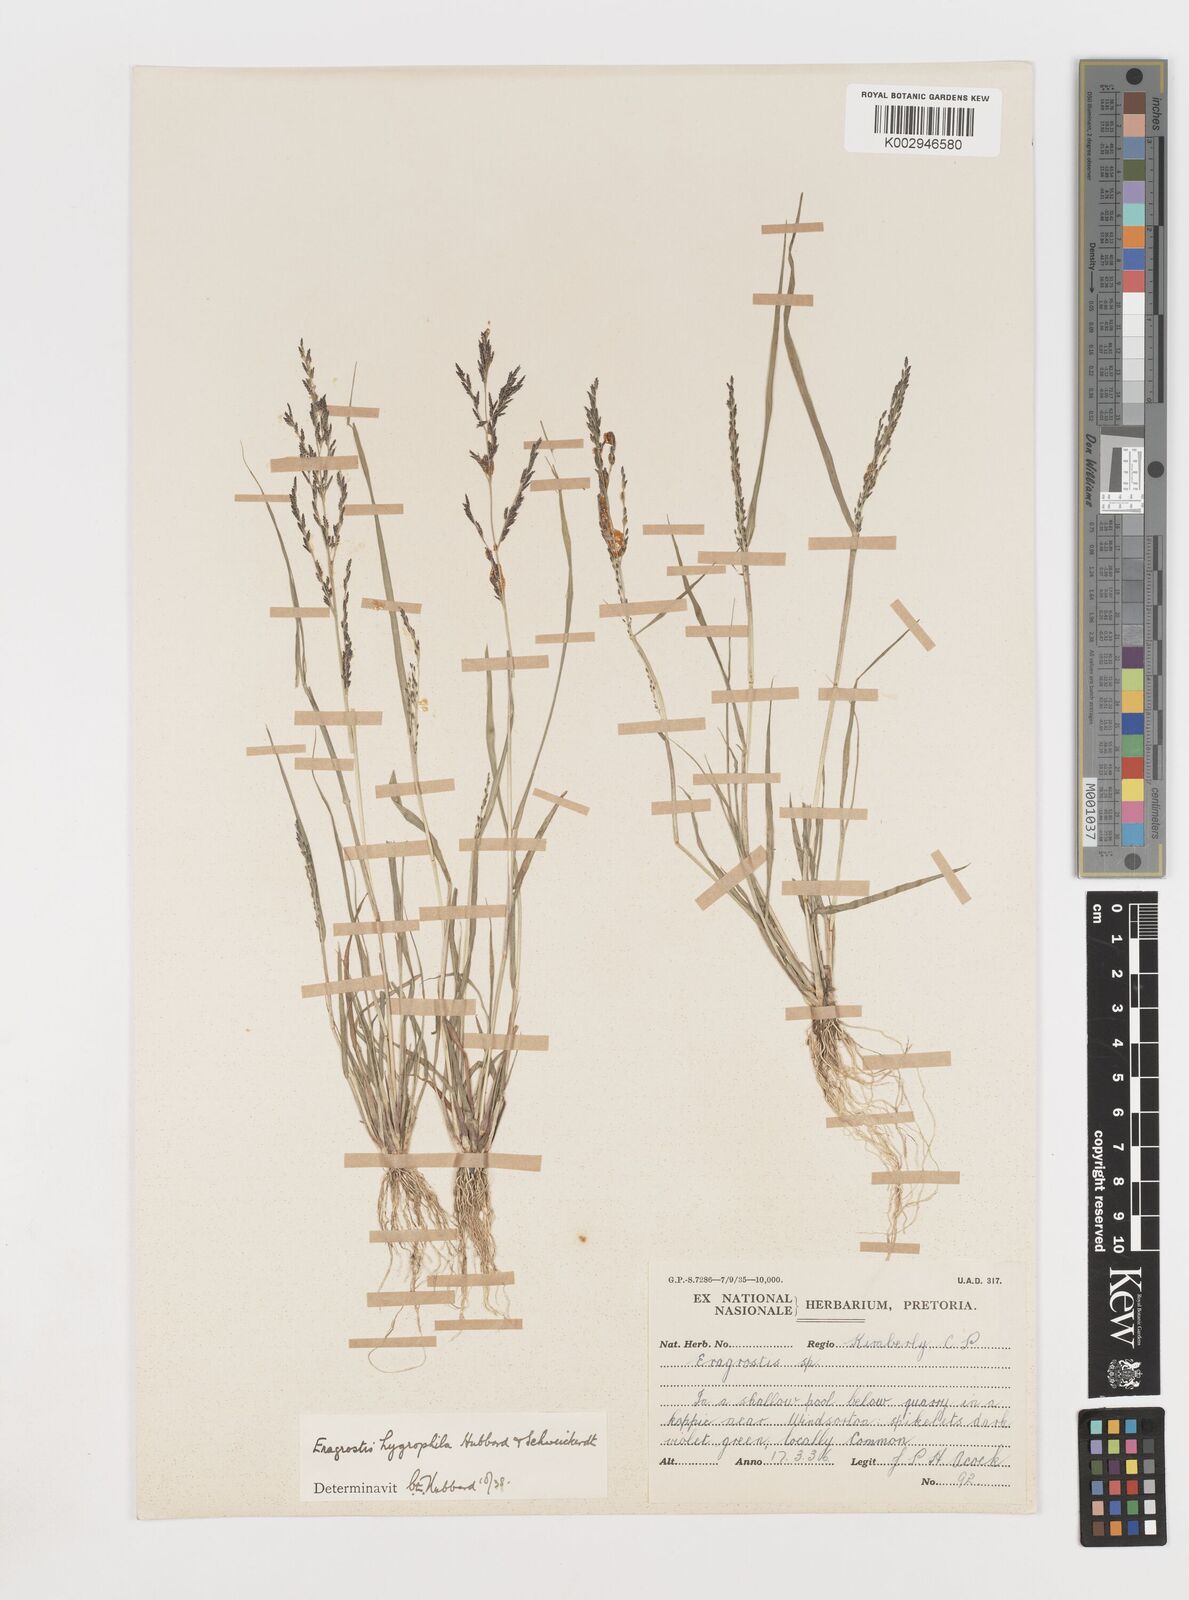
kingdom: Plantae
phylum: Tracheophyta
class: Liliopsida
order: Poales
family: Poaceae
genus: Eragrostis
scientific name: Eragrostis homomalla
